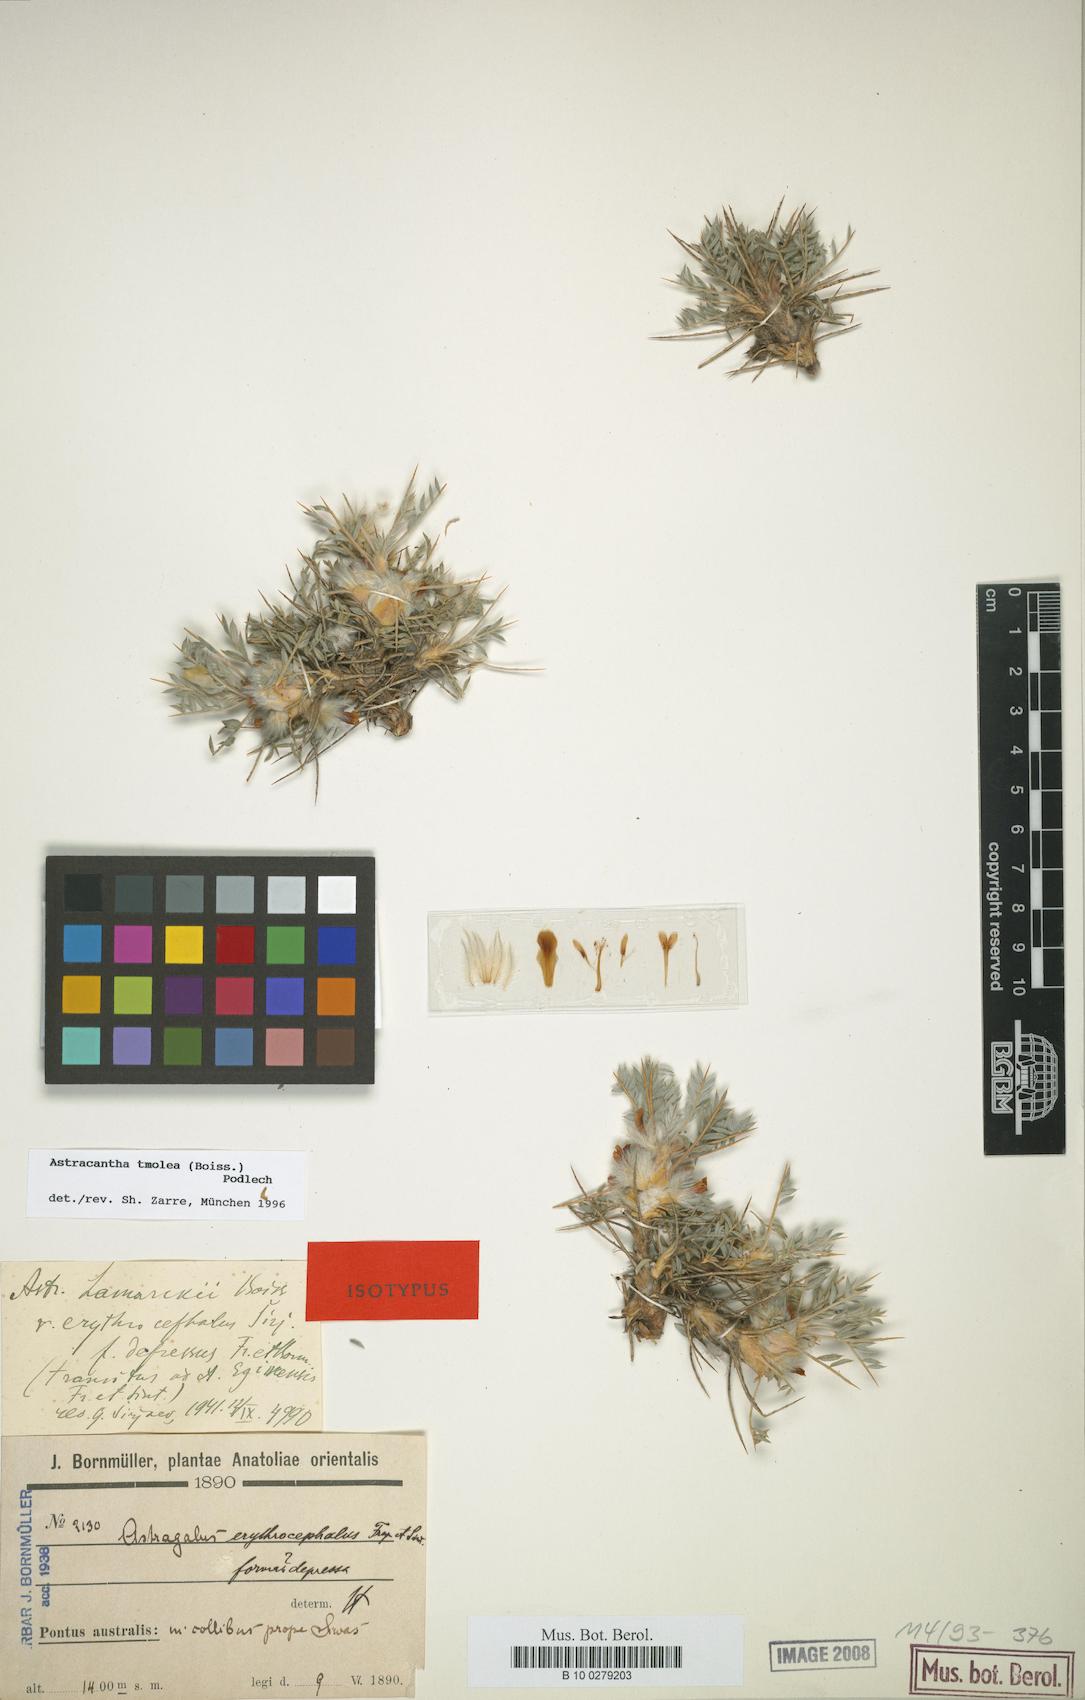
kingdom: Plantae
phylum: Tracheophyta
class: Magnoliopsida
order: Fabales
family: Fabaceae
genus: Astragalus
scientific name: Astragalus tmoleus
